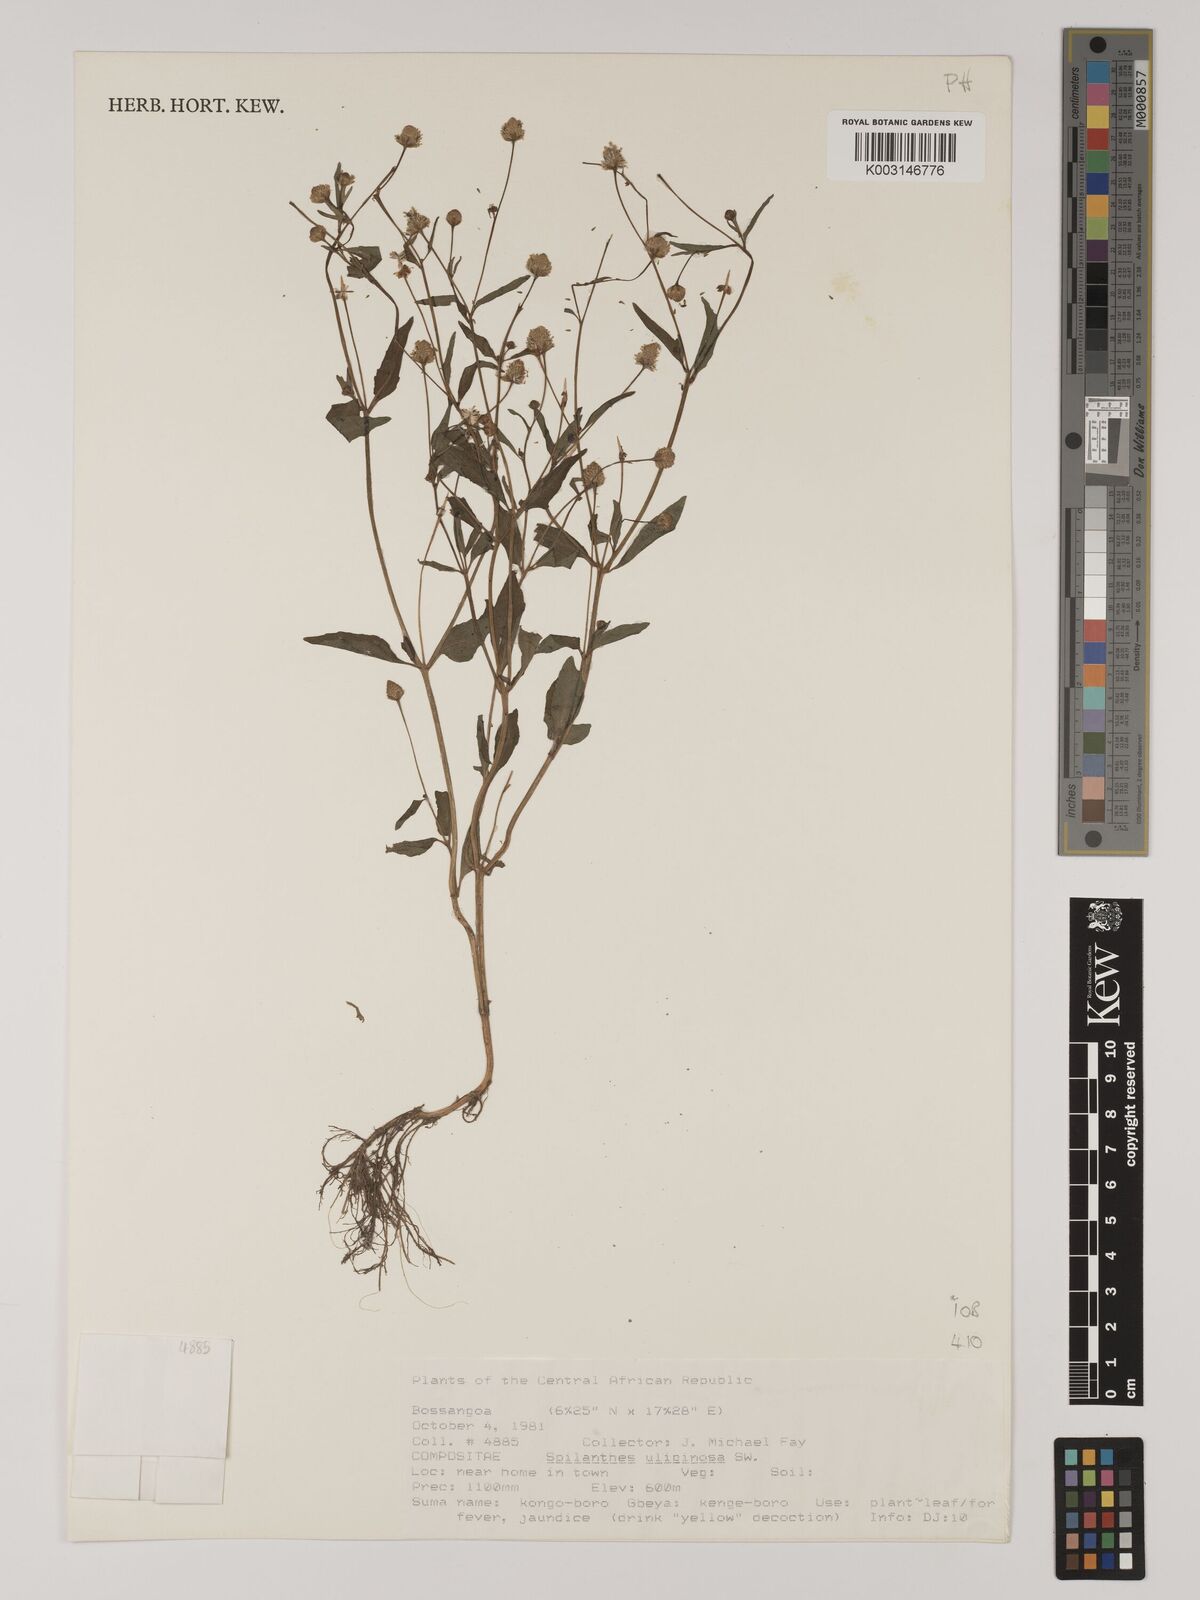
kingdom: Plantae
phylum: Tracheophyta
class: Magnoliopsida
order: Asterales
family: Asteraceae
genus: Acmella
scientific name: Acmella uliginosa
